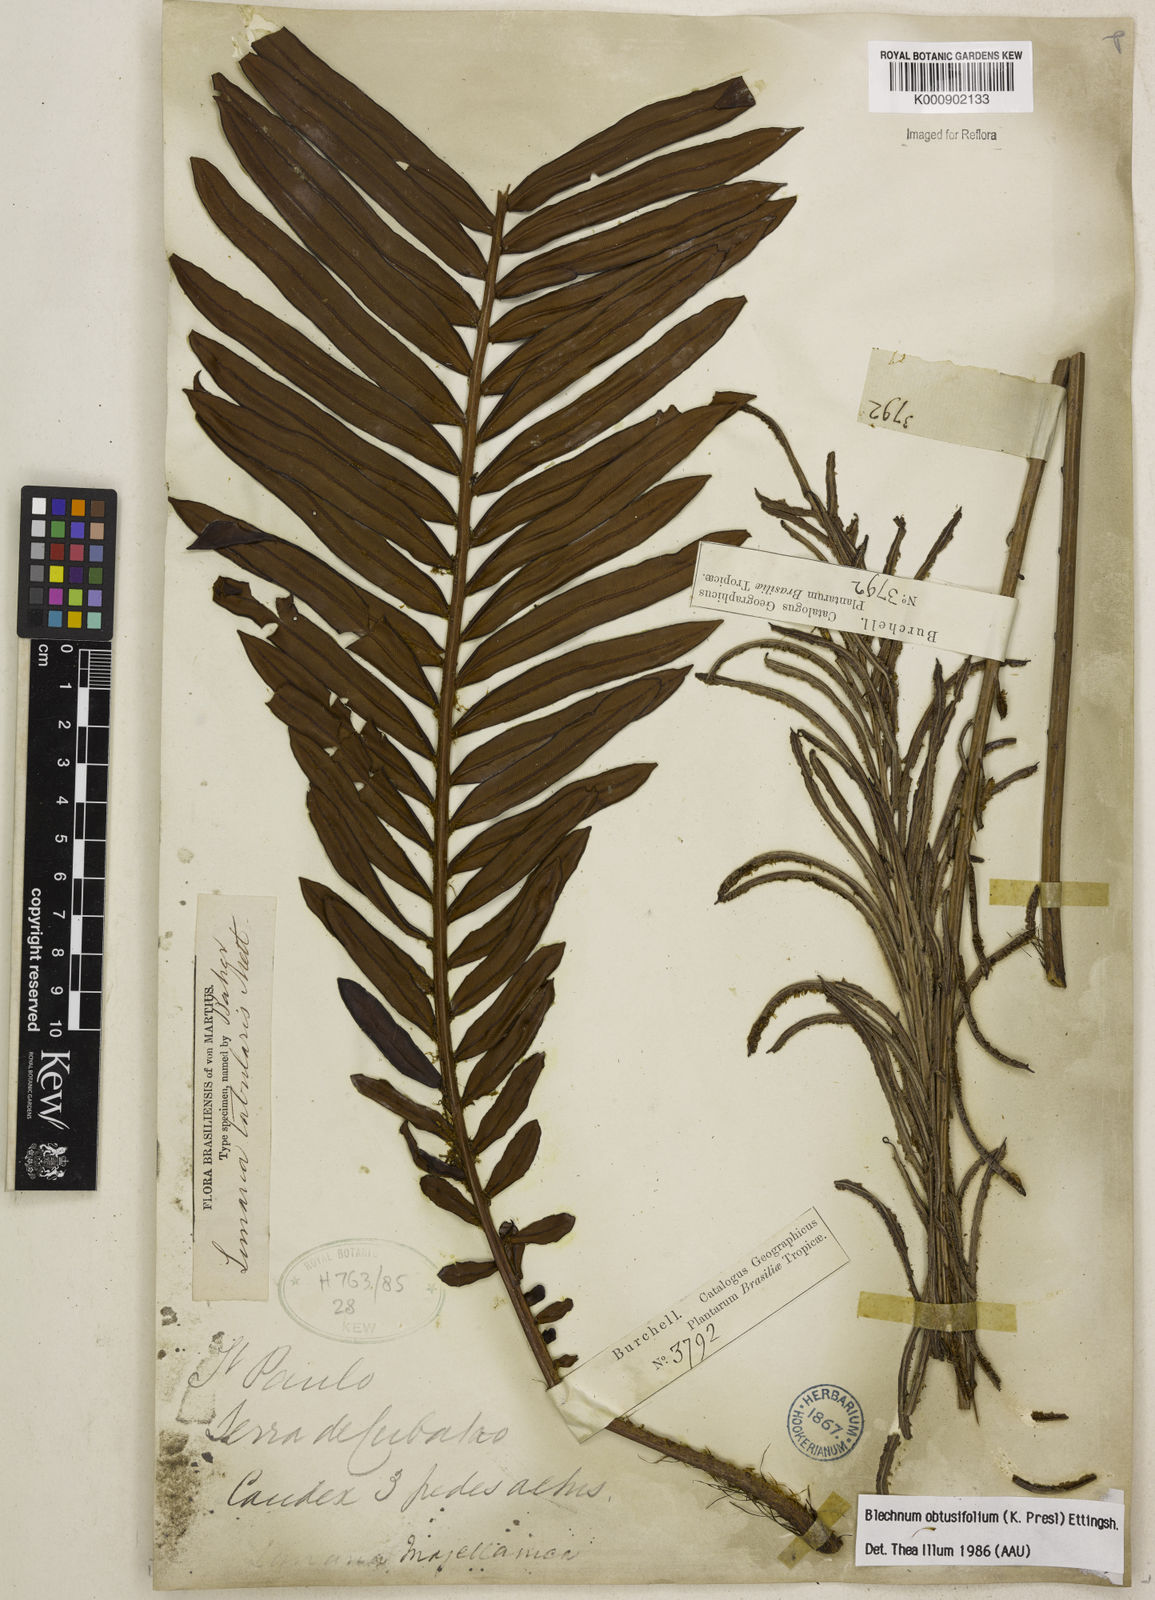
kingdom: Plantae
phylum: Tracheophyta
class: Polypodiopsida
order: Polypodiales
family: Blechnaceae
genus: Lomariocycas
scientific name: Lomariocycas obtusifolia
